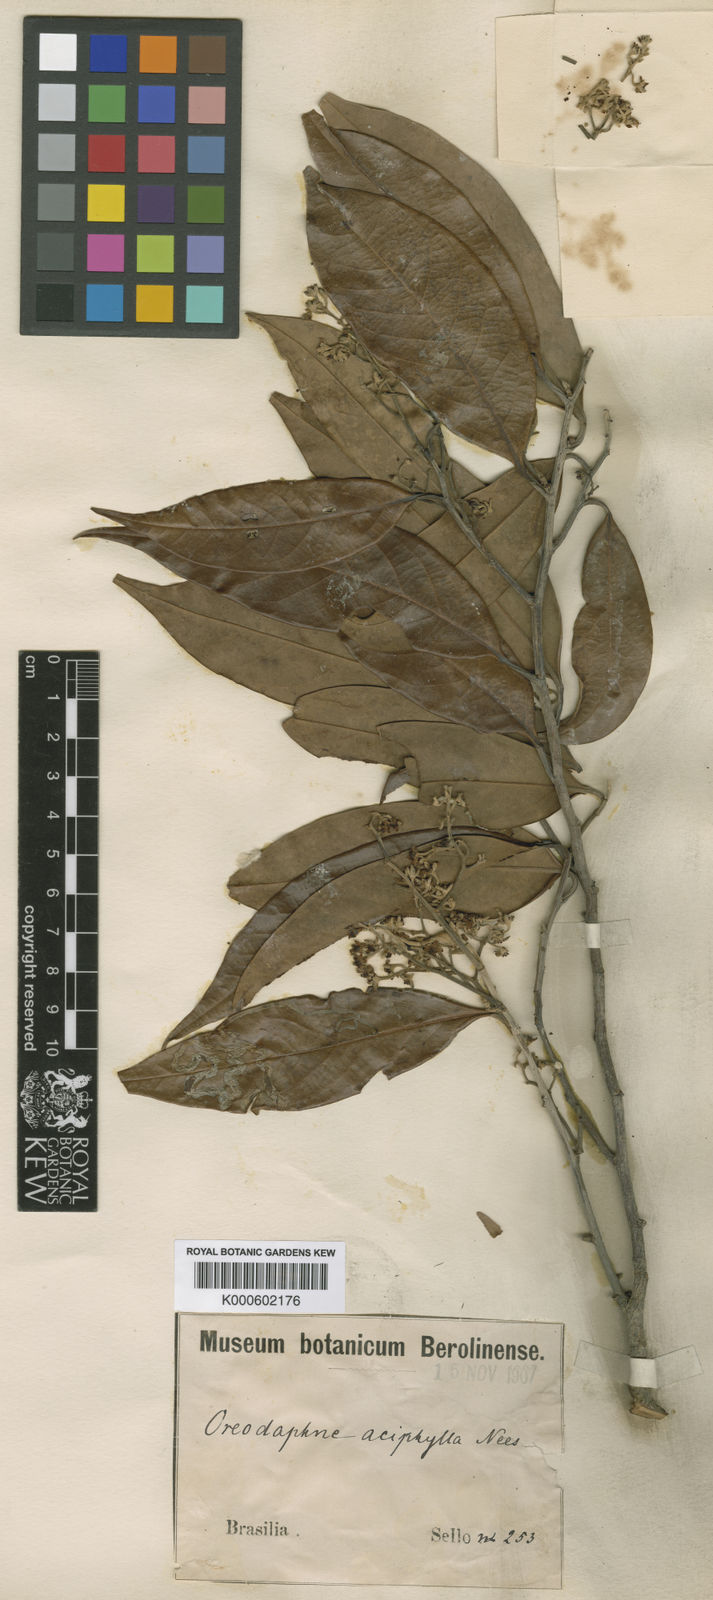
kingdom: Plantae
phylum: Tracheophyta
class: Magnoliopsida
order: Laurales
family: Lauraceae
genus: Ocotea
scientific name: Ocotea aciphylla
